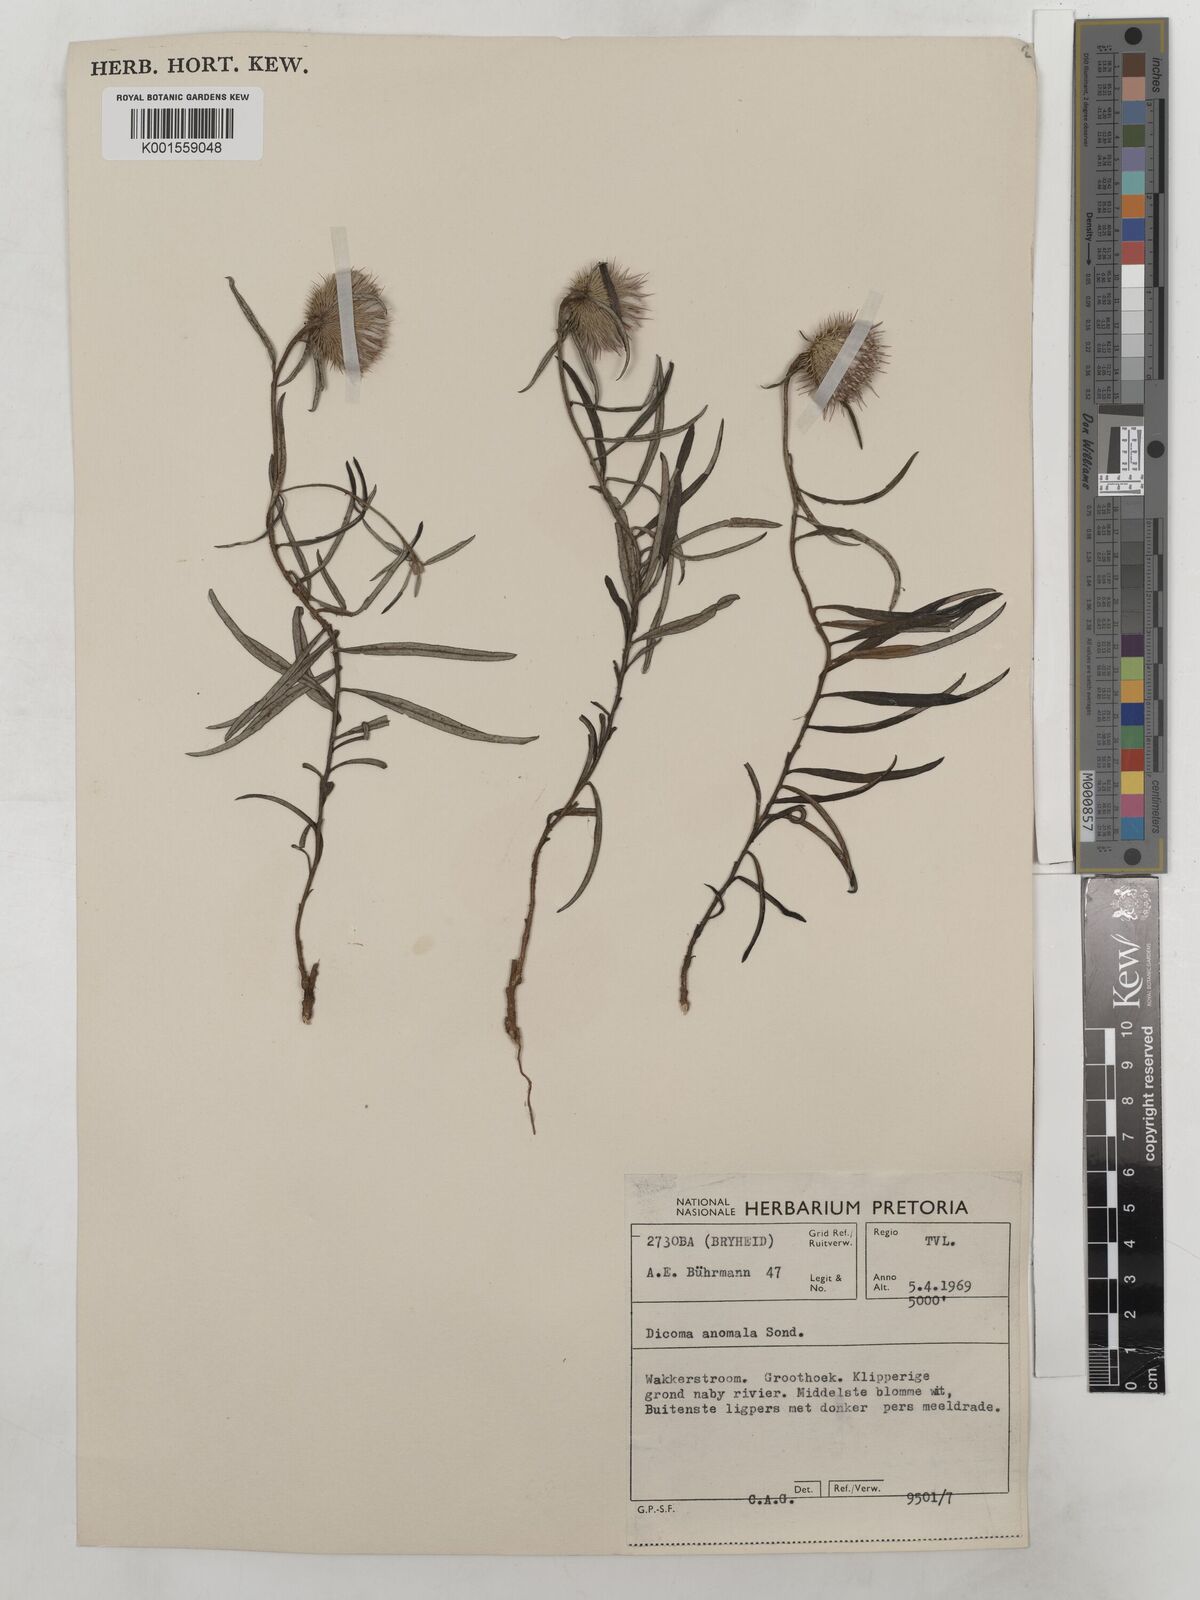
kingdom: Plantae
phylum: Tracheophyta
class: Magnoliopsida
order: Asterales
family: Asteraceae
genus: Dicoma
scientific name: Dicoma anomala
